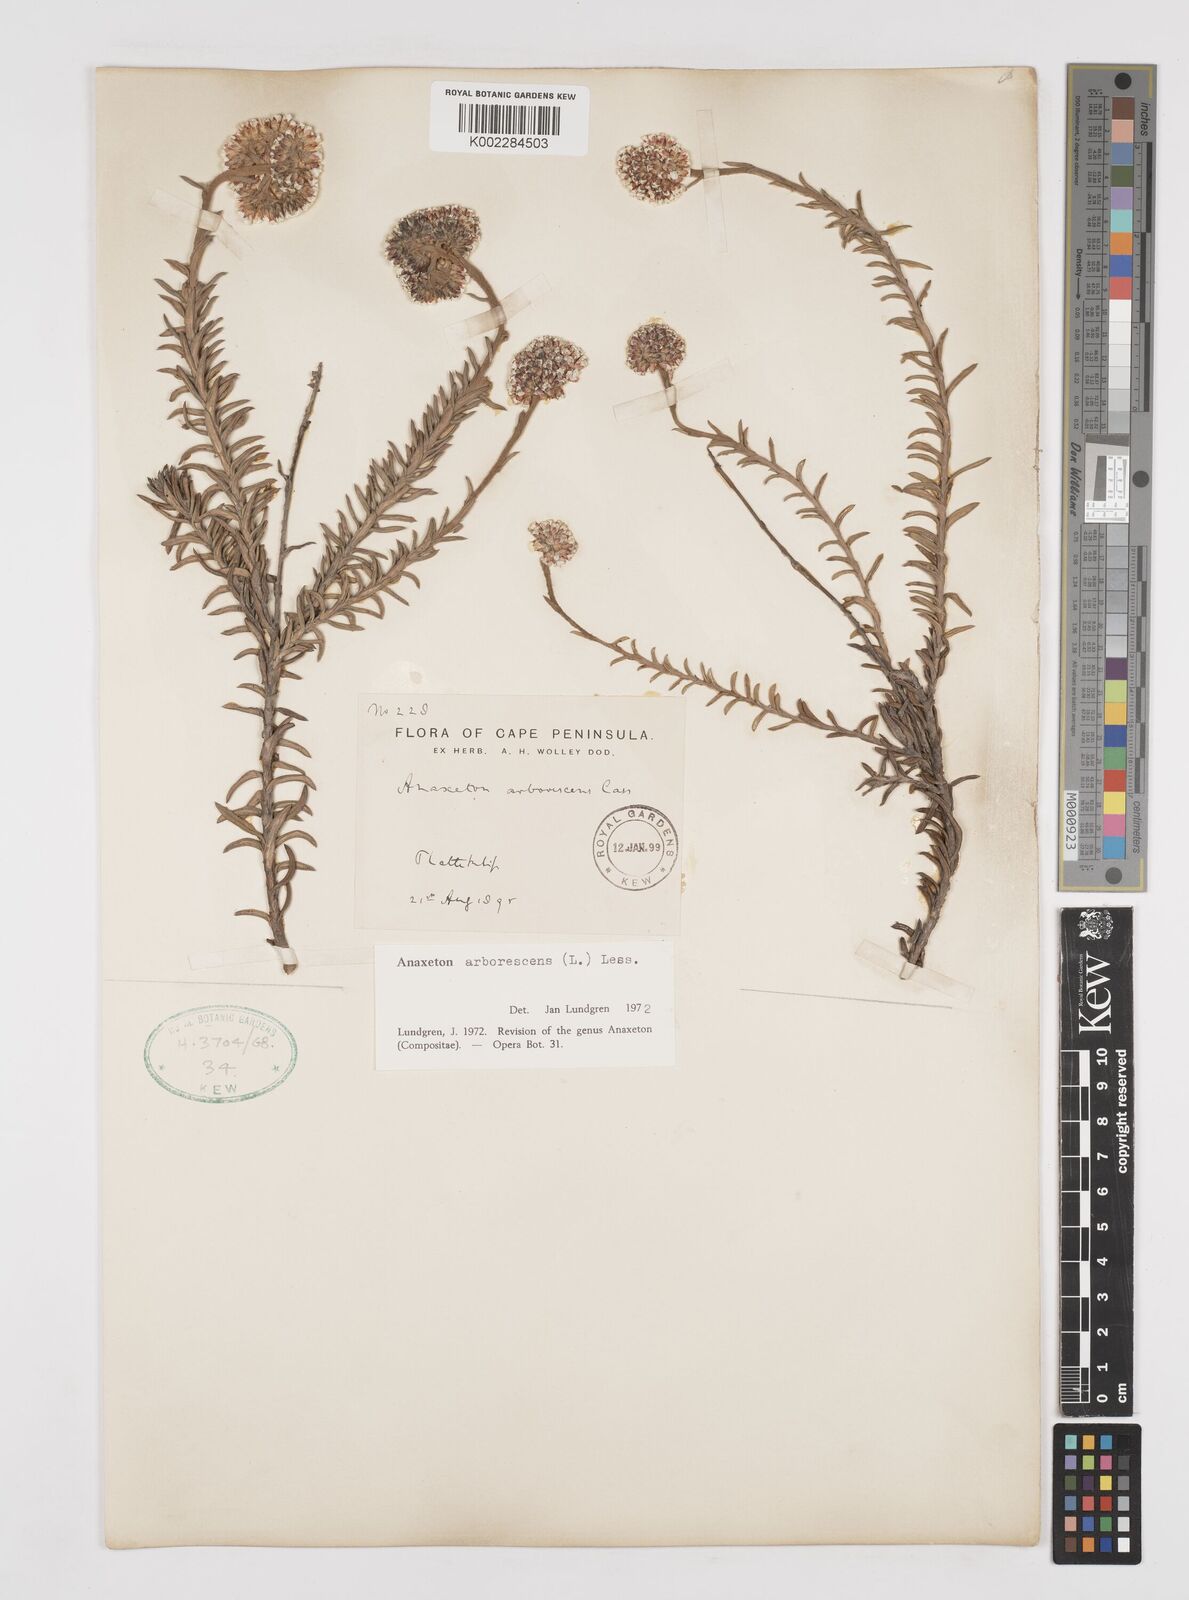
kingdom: Plantae
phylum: Tracheophyta
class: Magnoliopsida
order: Asterales
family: Asteraceae
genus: Anaxeton
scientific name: Anaxeton arborescens
